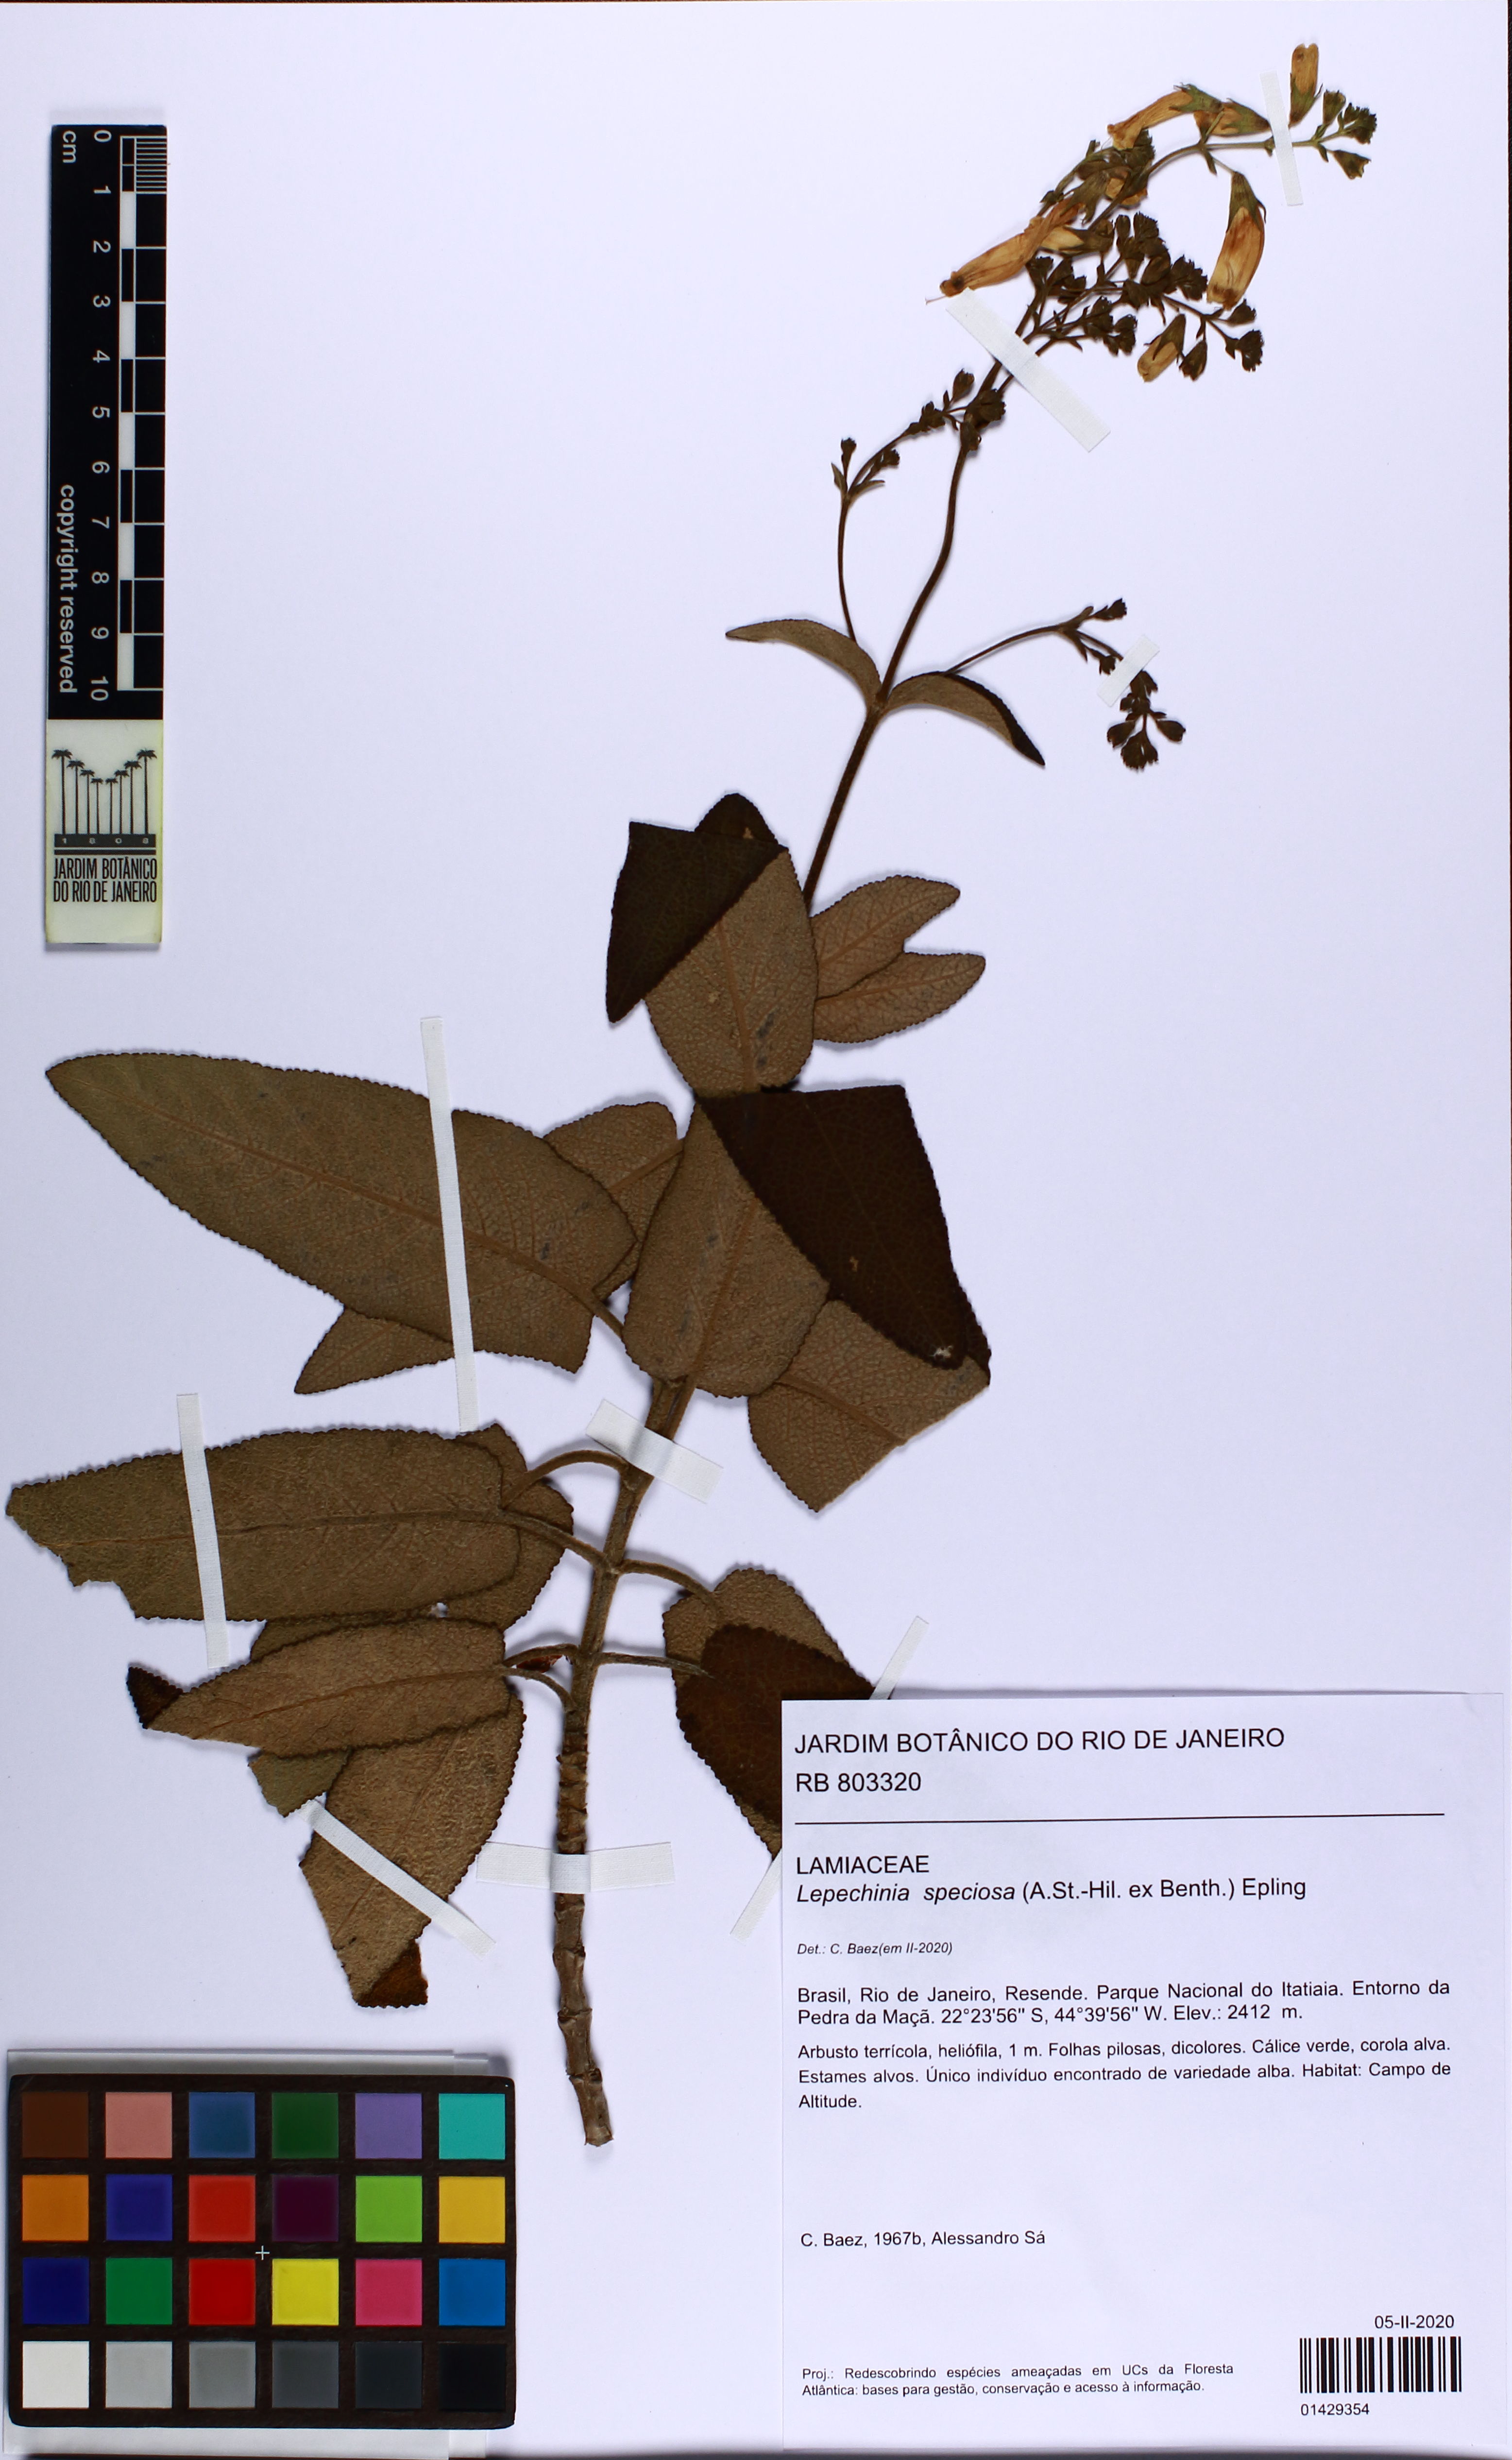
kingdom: Plantae
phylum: Tracheophyta
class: Magnoliopsida
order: Lamiales
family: Lamiaceae
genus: Lepechinia
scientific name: Lepechinia speciosa
